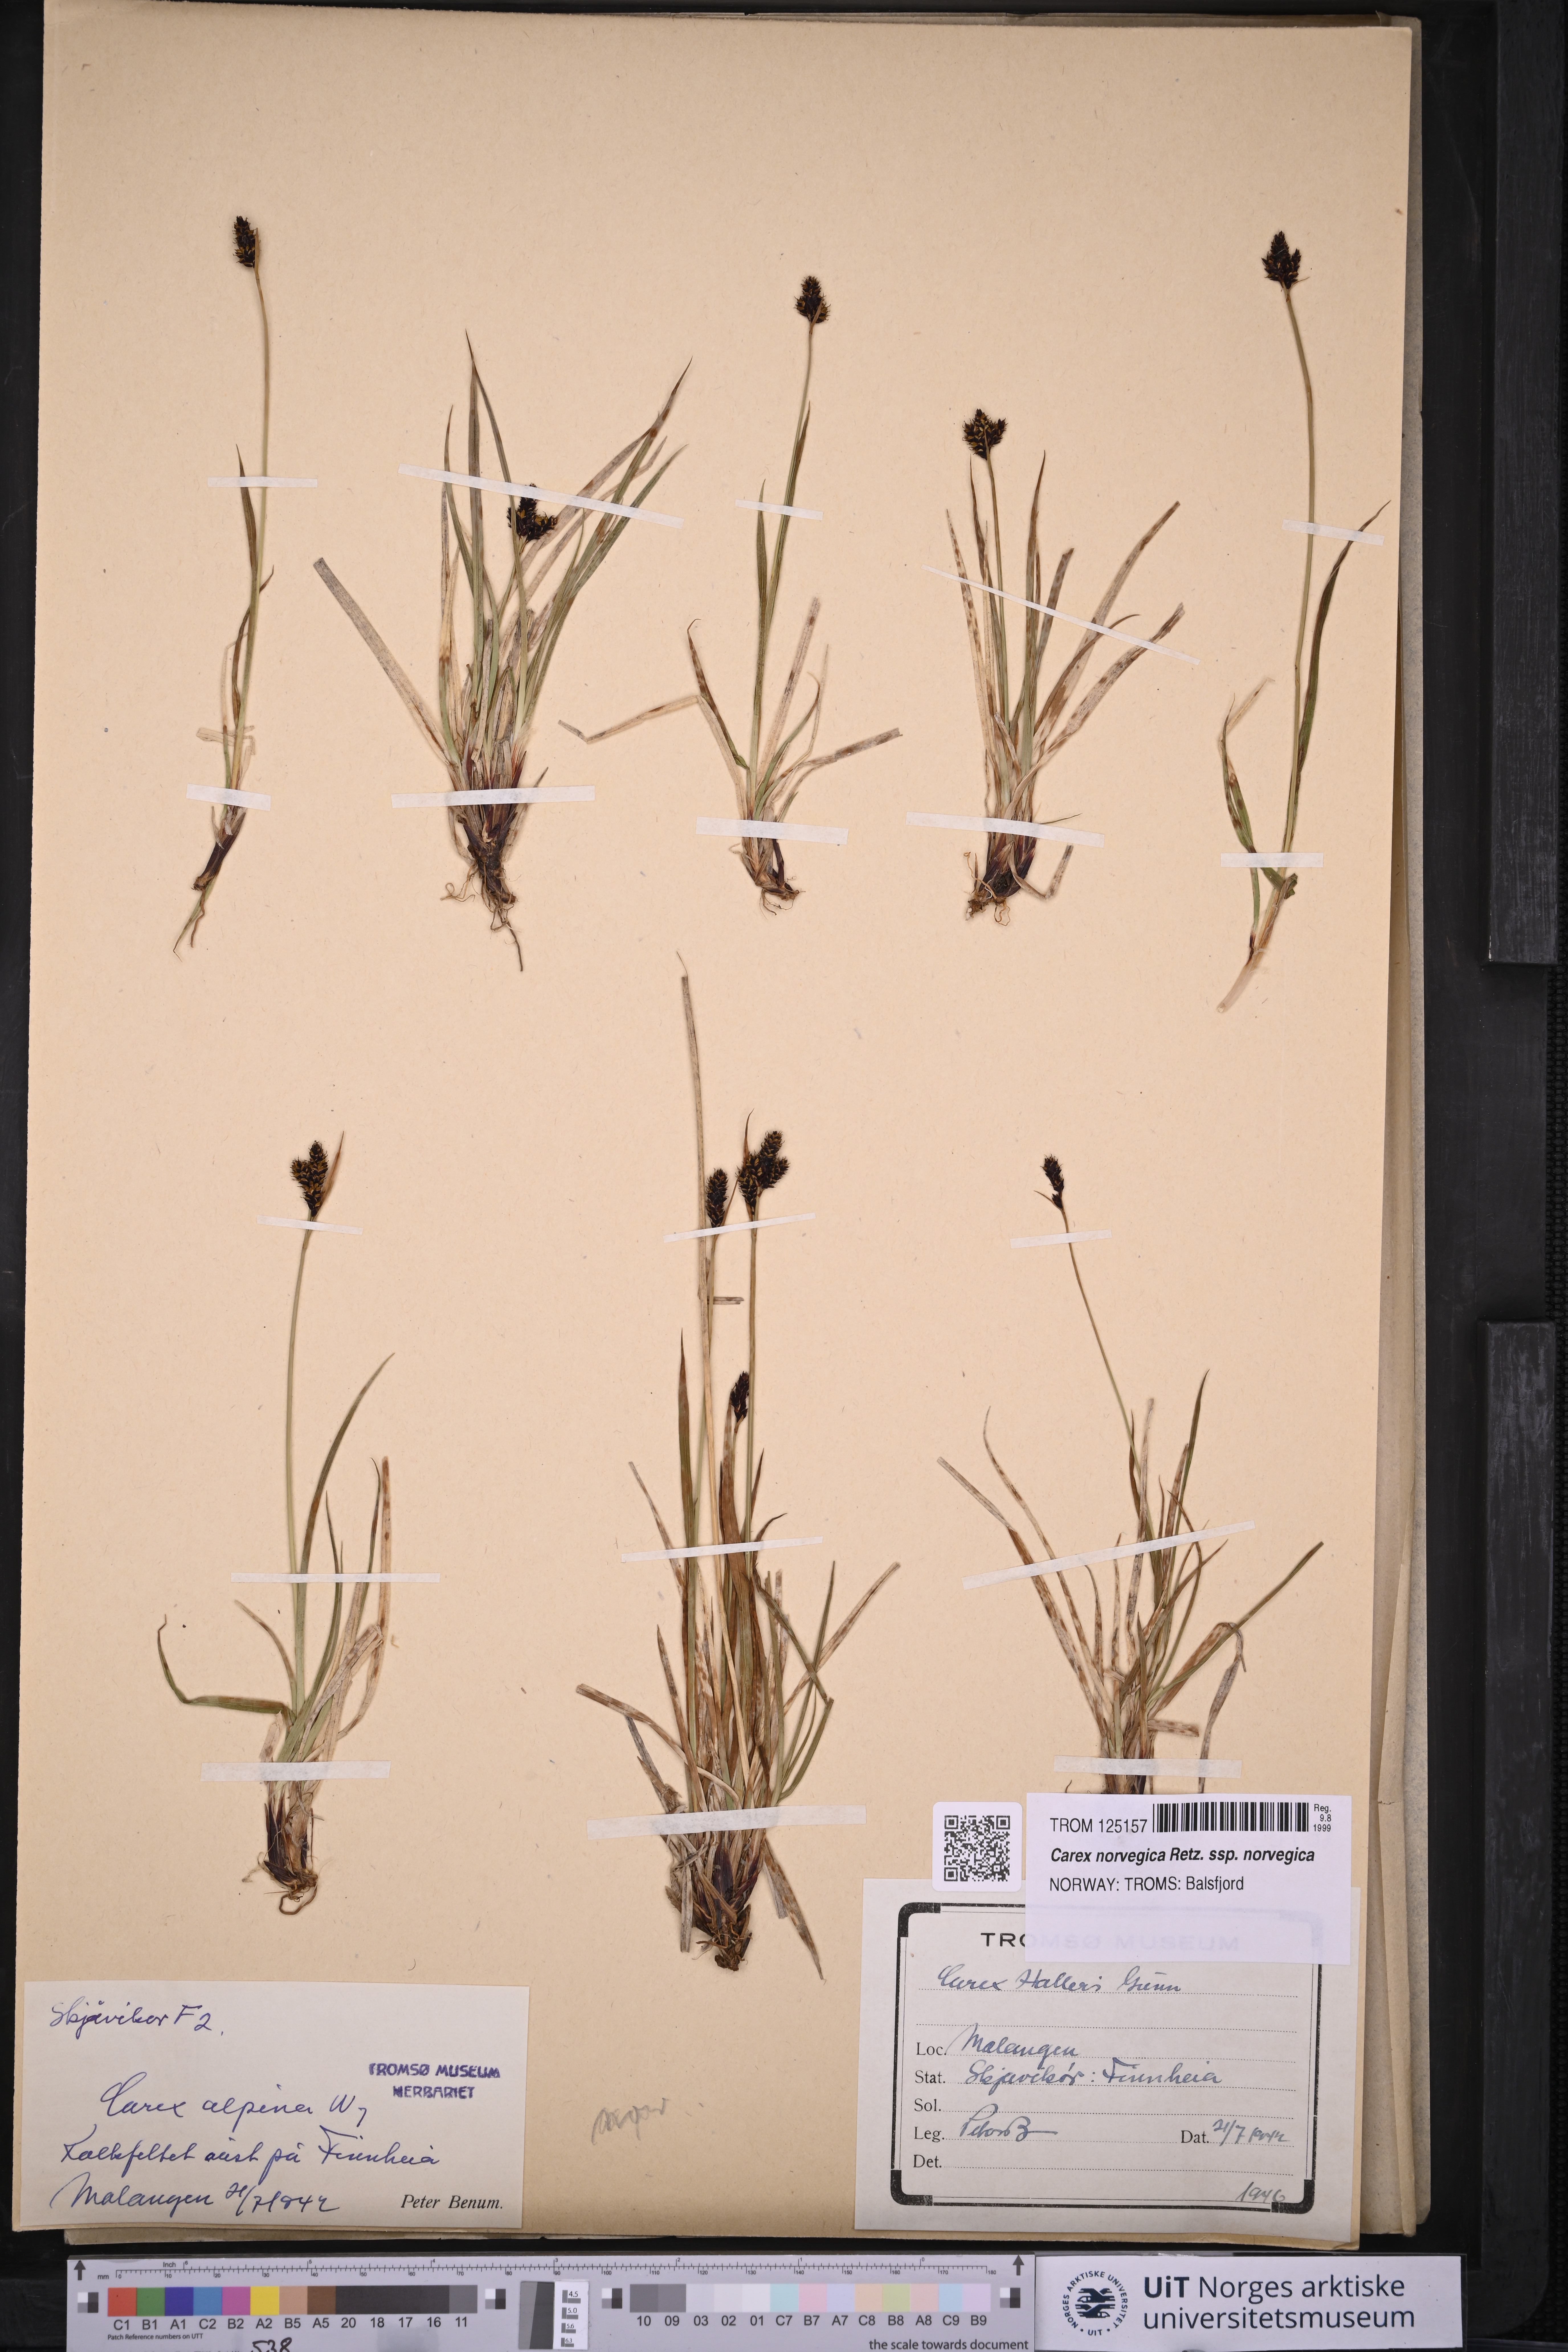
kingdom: Plantae
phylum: Tracheophyta
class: Liliopsida
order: Poales
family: Cyperaceae
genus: Carex
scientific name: Carex norvegica
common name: Close-headed alpine-sedge
